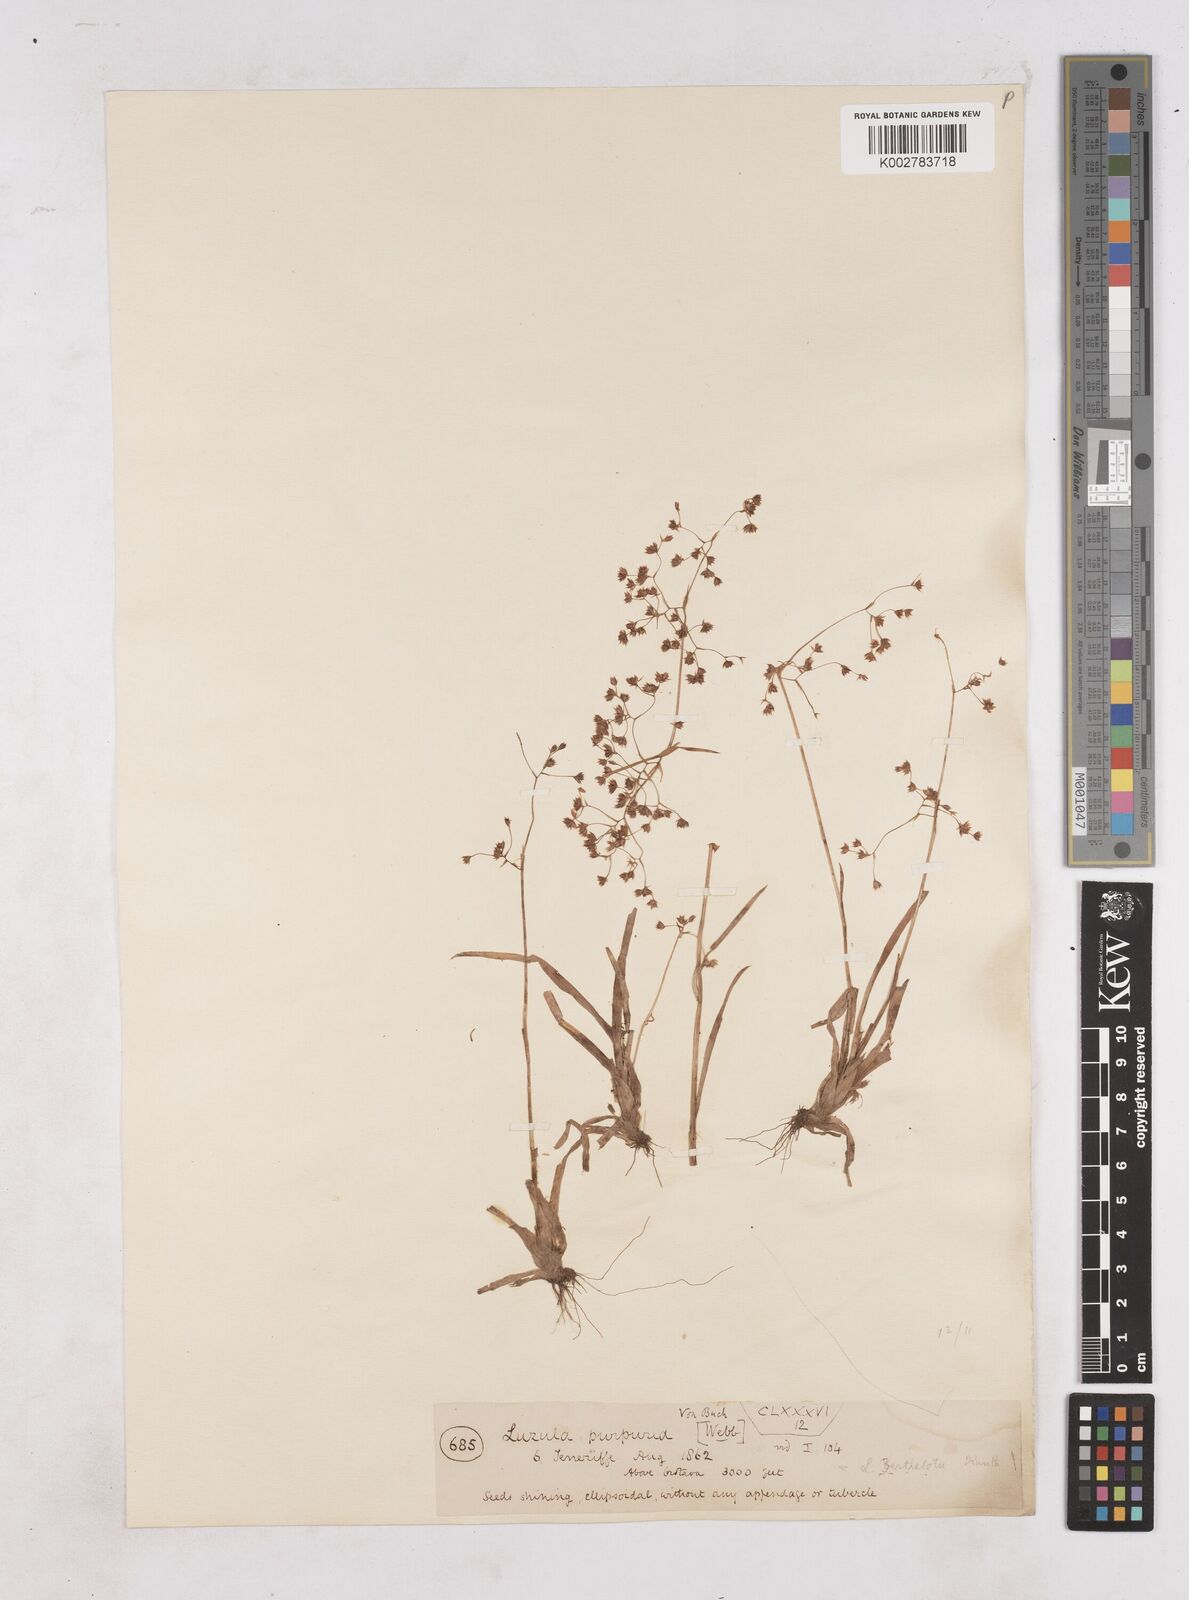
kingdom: Plantae
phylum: Tracheophyta
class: Liliopsida
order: Poales
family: Juncaceae
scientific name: Juncaceae
